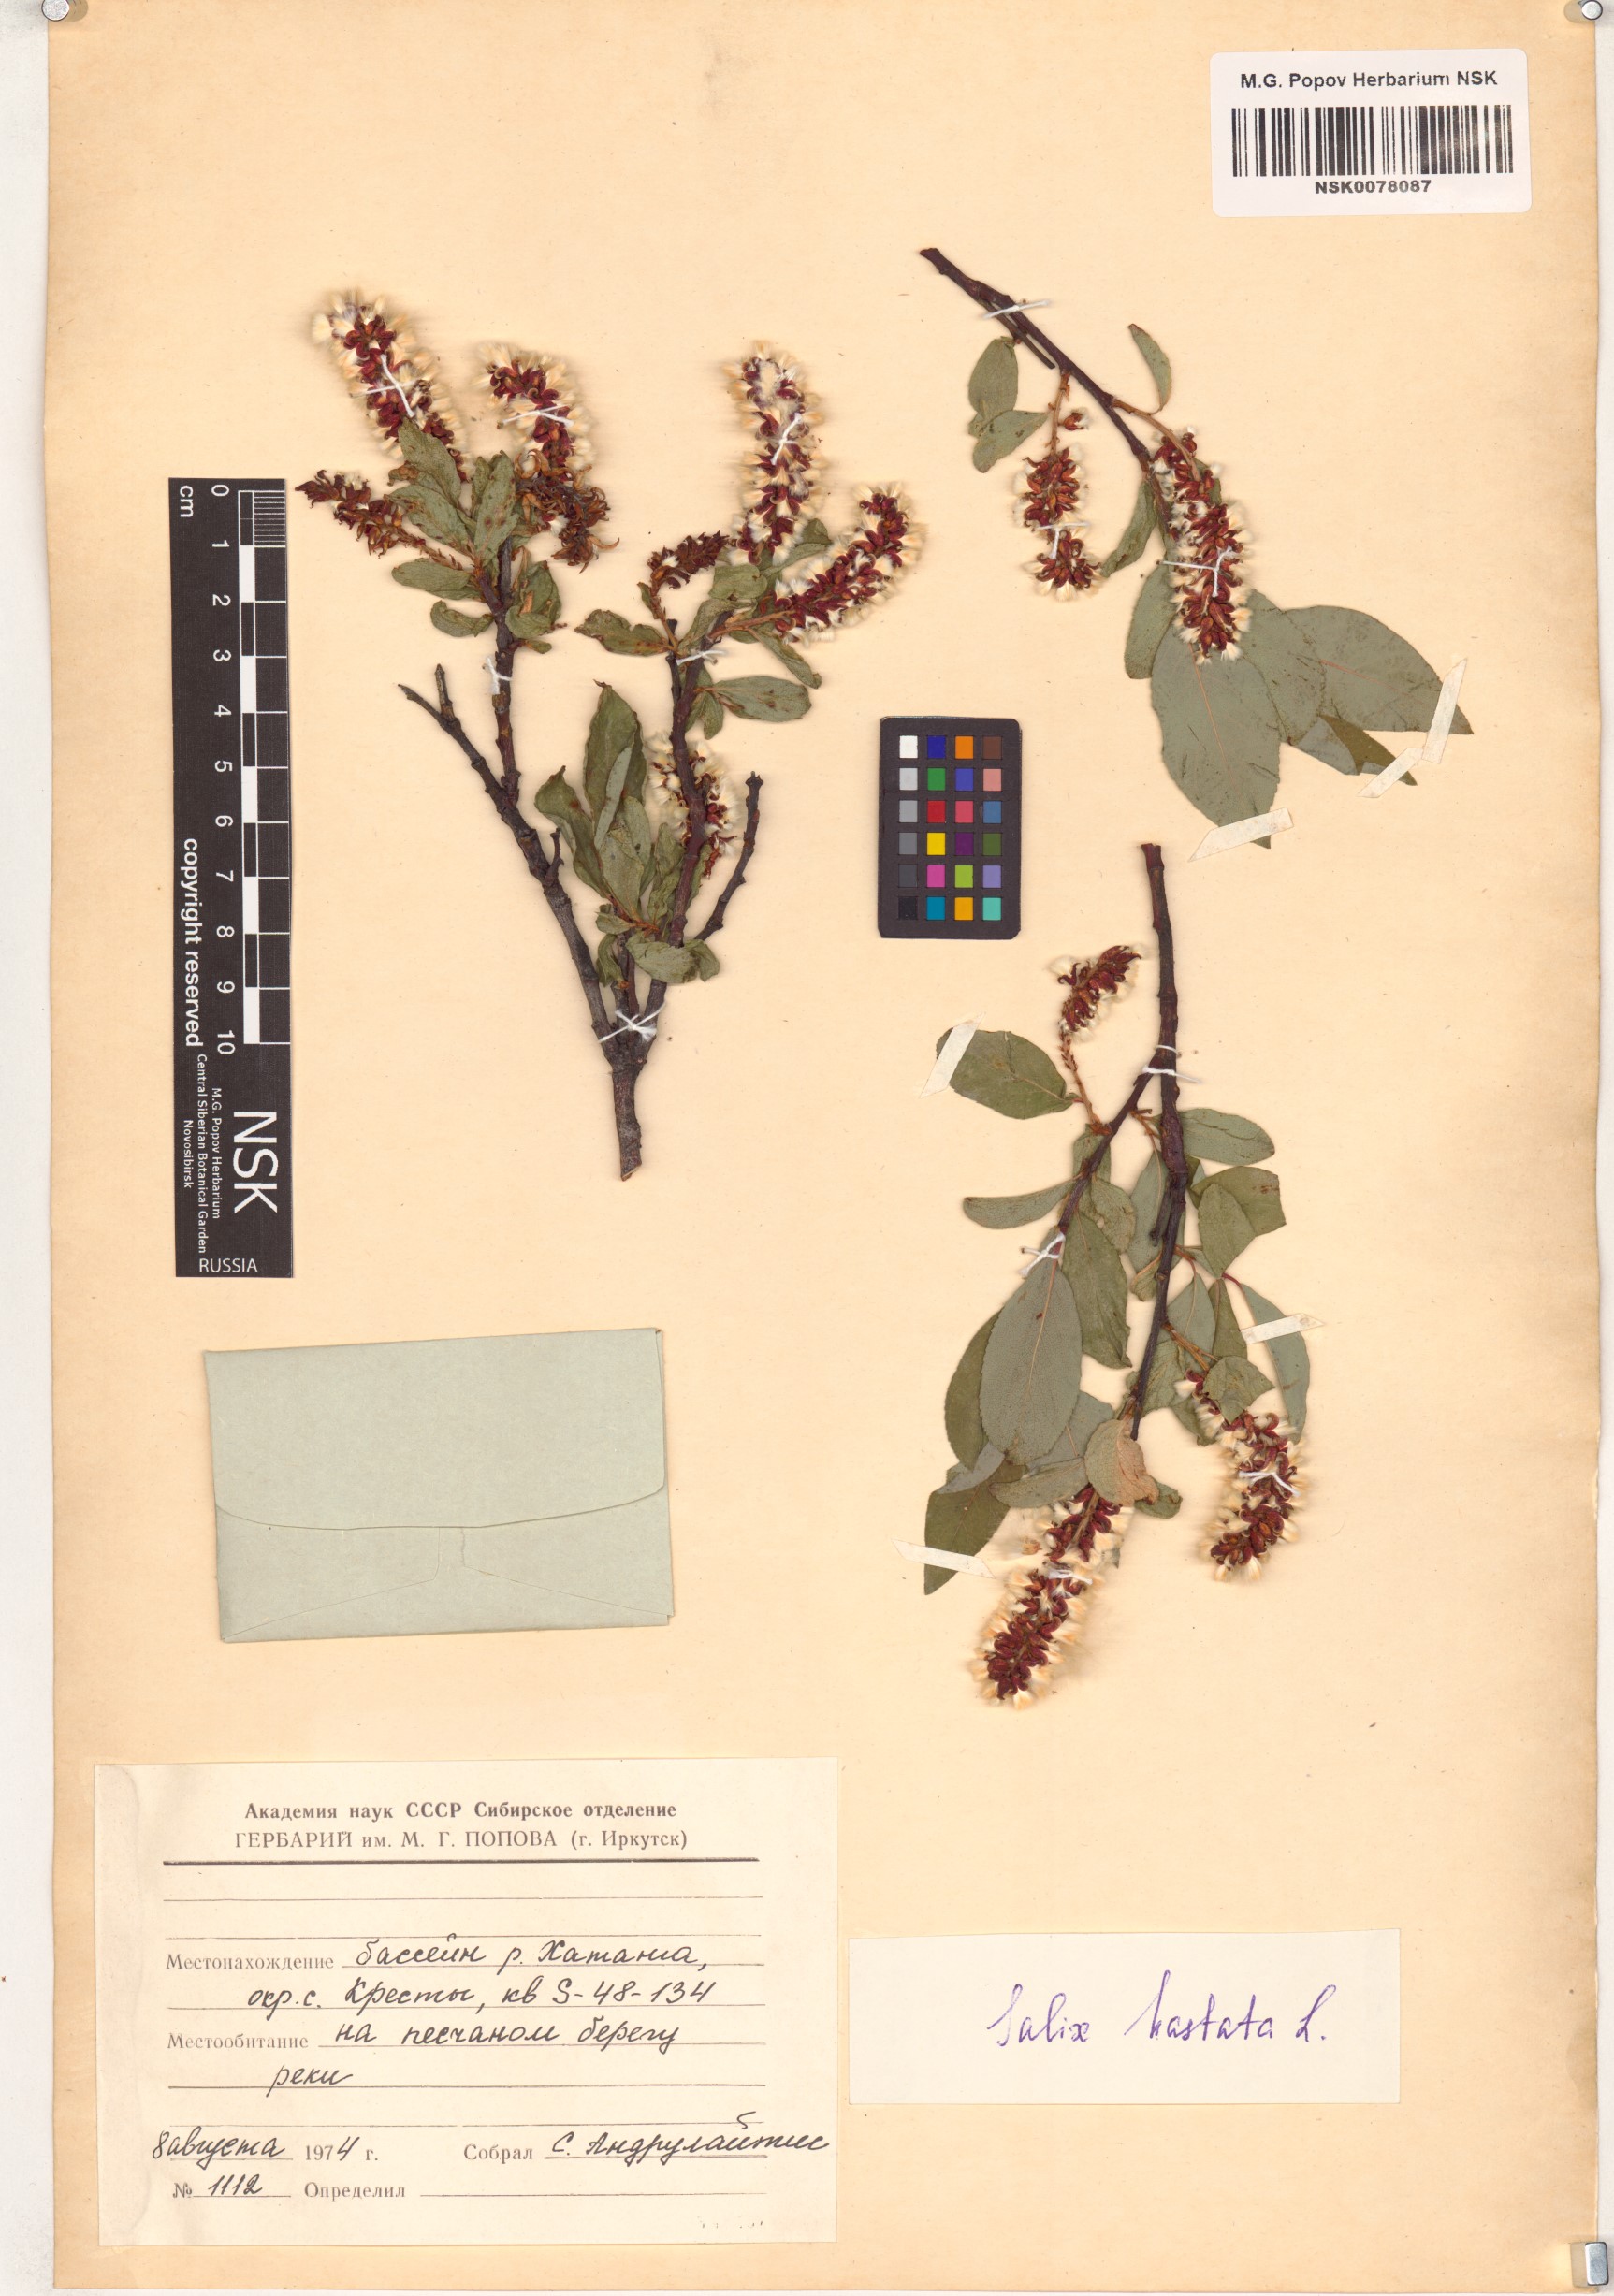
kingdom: Plantae
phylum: Tracheophyta
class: Magnoliopsida
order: Malpighiales
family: Salicaceae
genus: Salix
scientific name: Salix hastata
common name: Halberd willow
